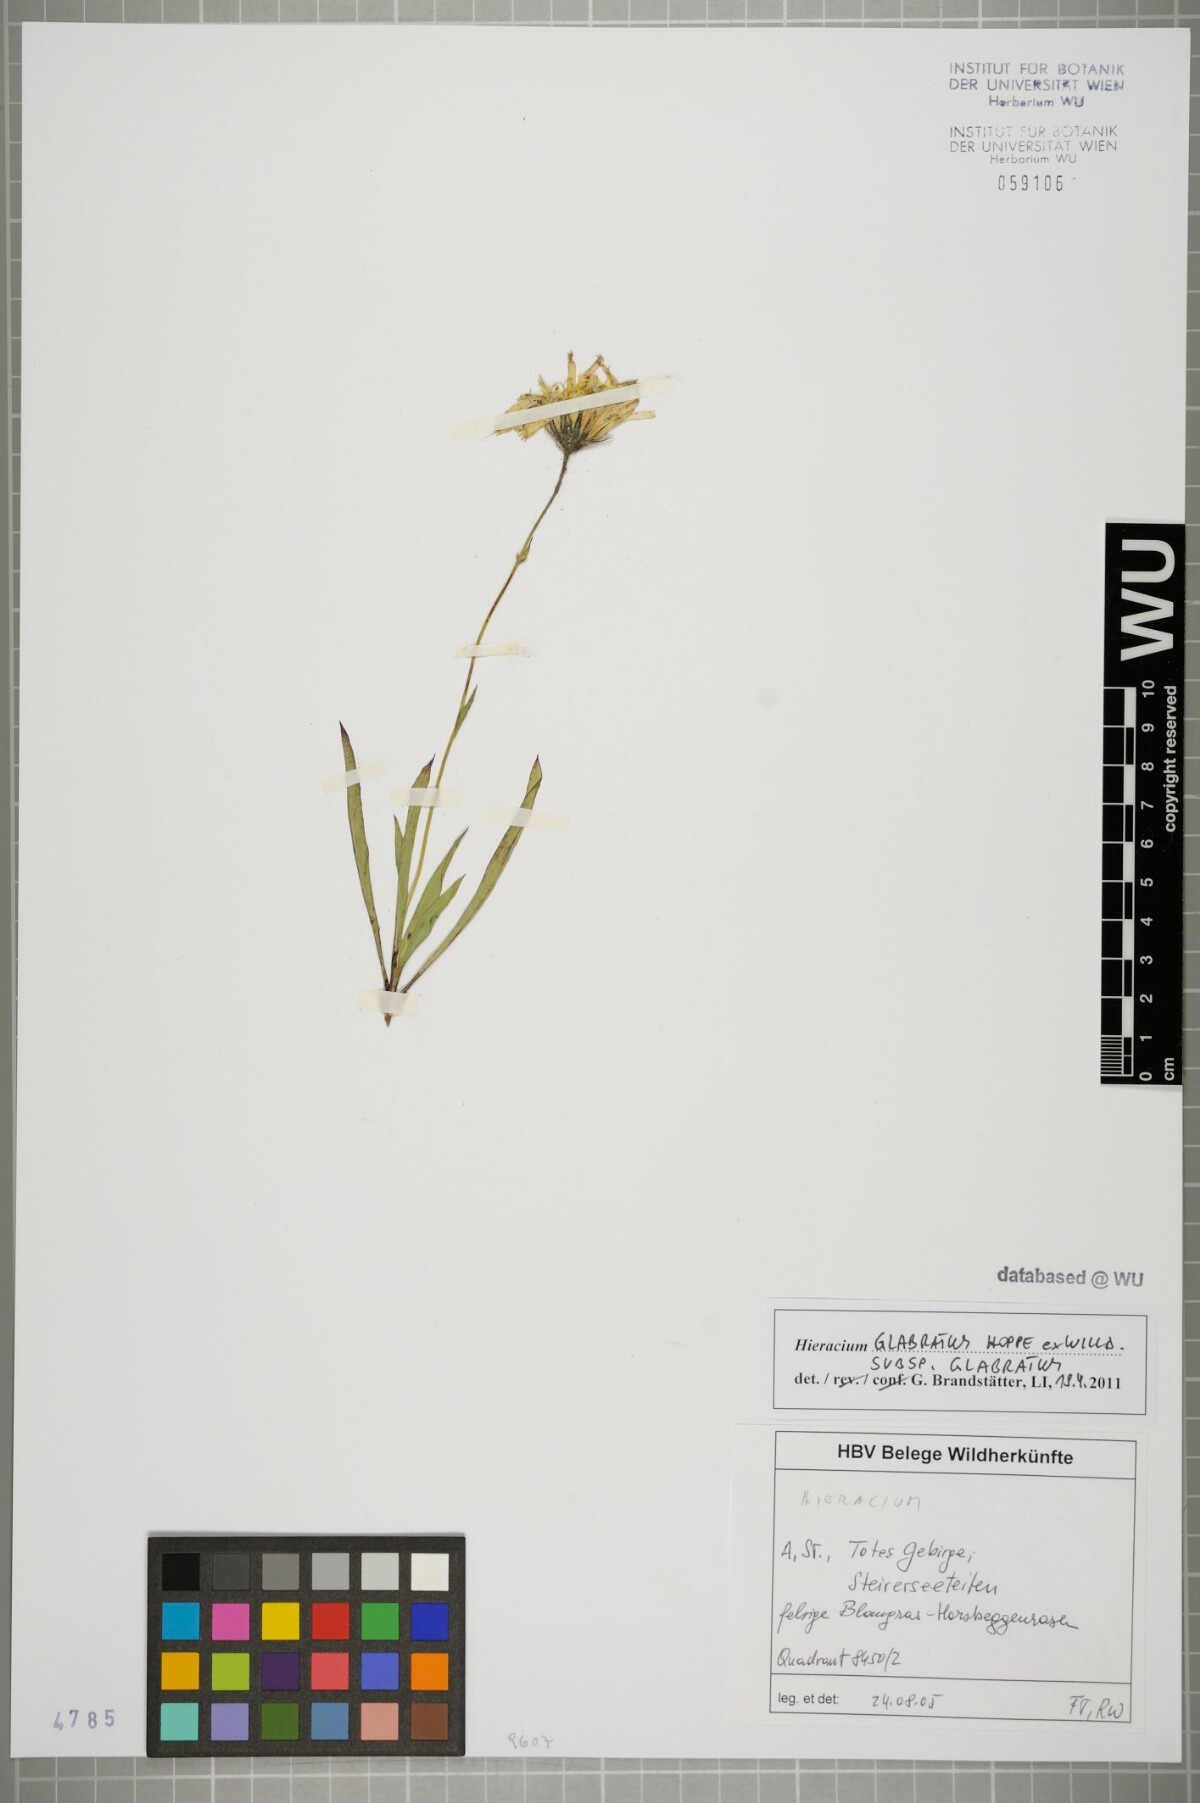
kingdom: Plantae
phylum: Tracheophyta
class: Magnoliopsida
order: Asterales
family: Asteraceae
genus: Hieracium
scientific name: Hieracium glabratum
